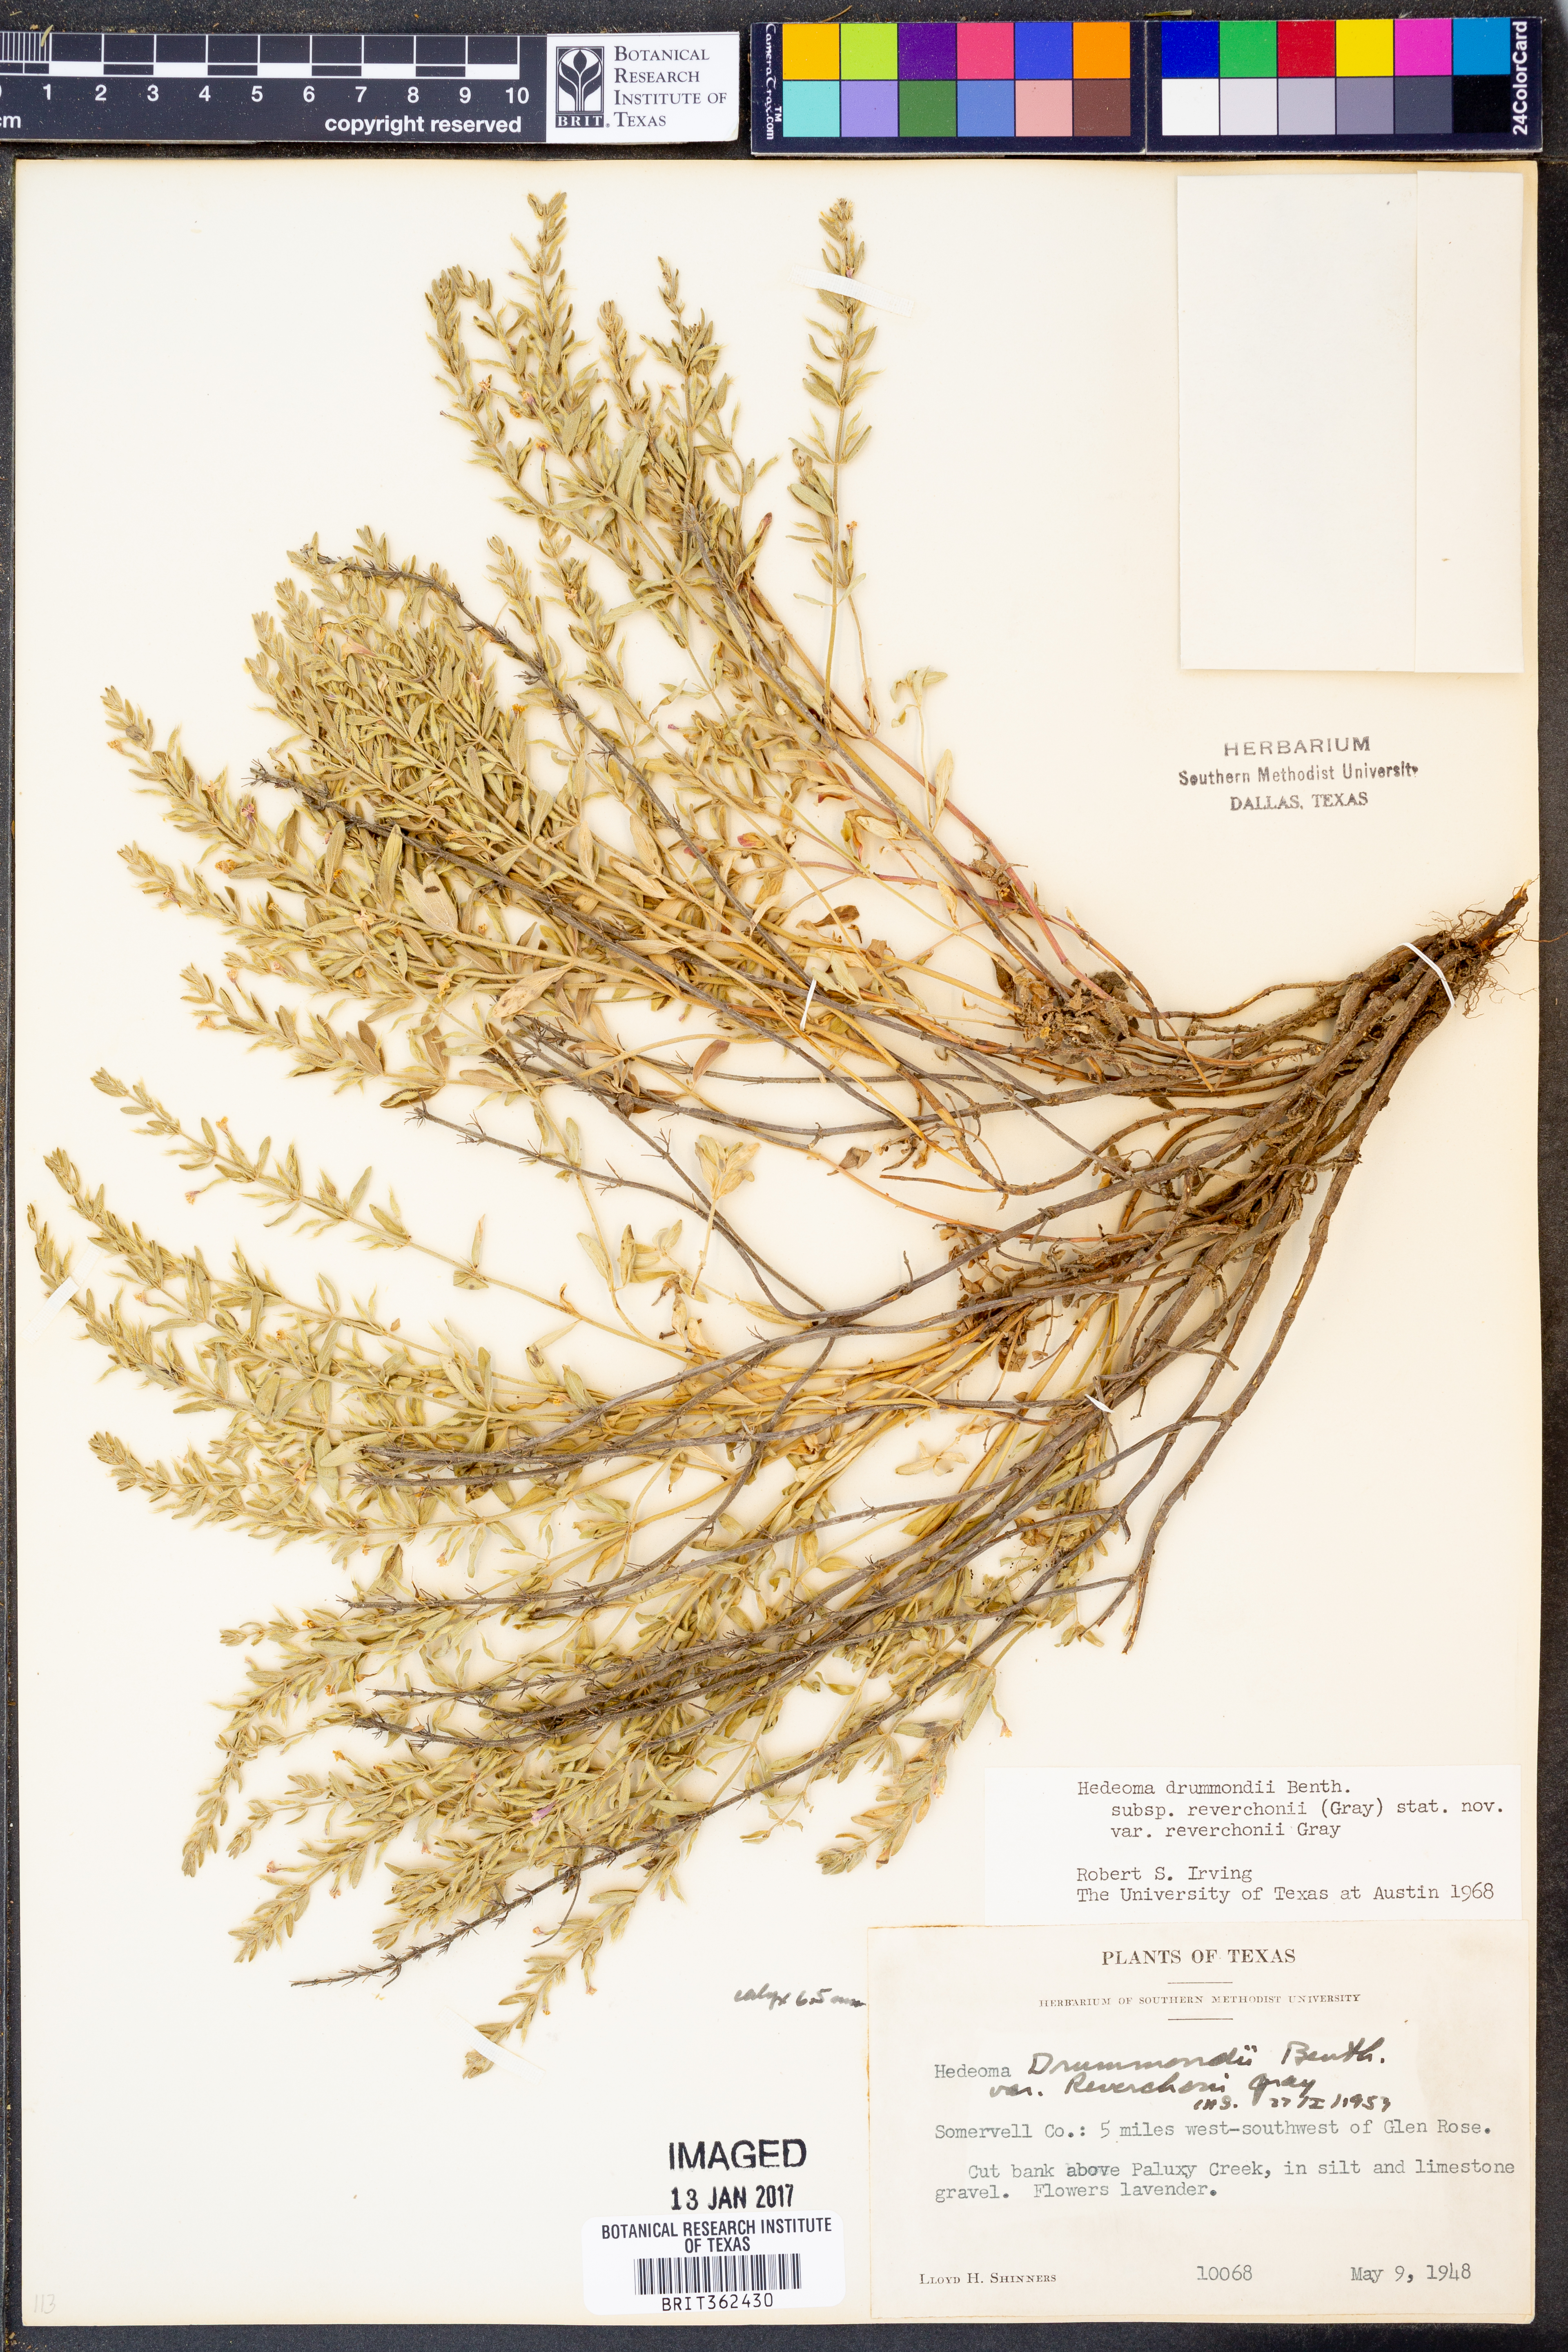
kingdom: Plantae
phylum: Tracheophyta
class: Magnoliopsida
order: Lamiales
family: Lamiaceae
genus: Hedeoma
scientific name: Hedeoma reverchonii
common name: Reverchon's false penny-royal
